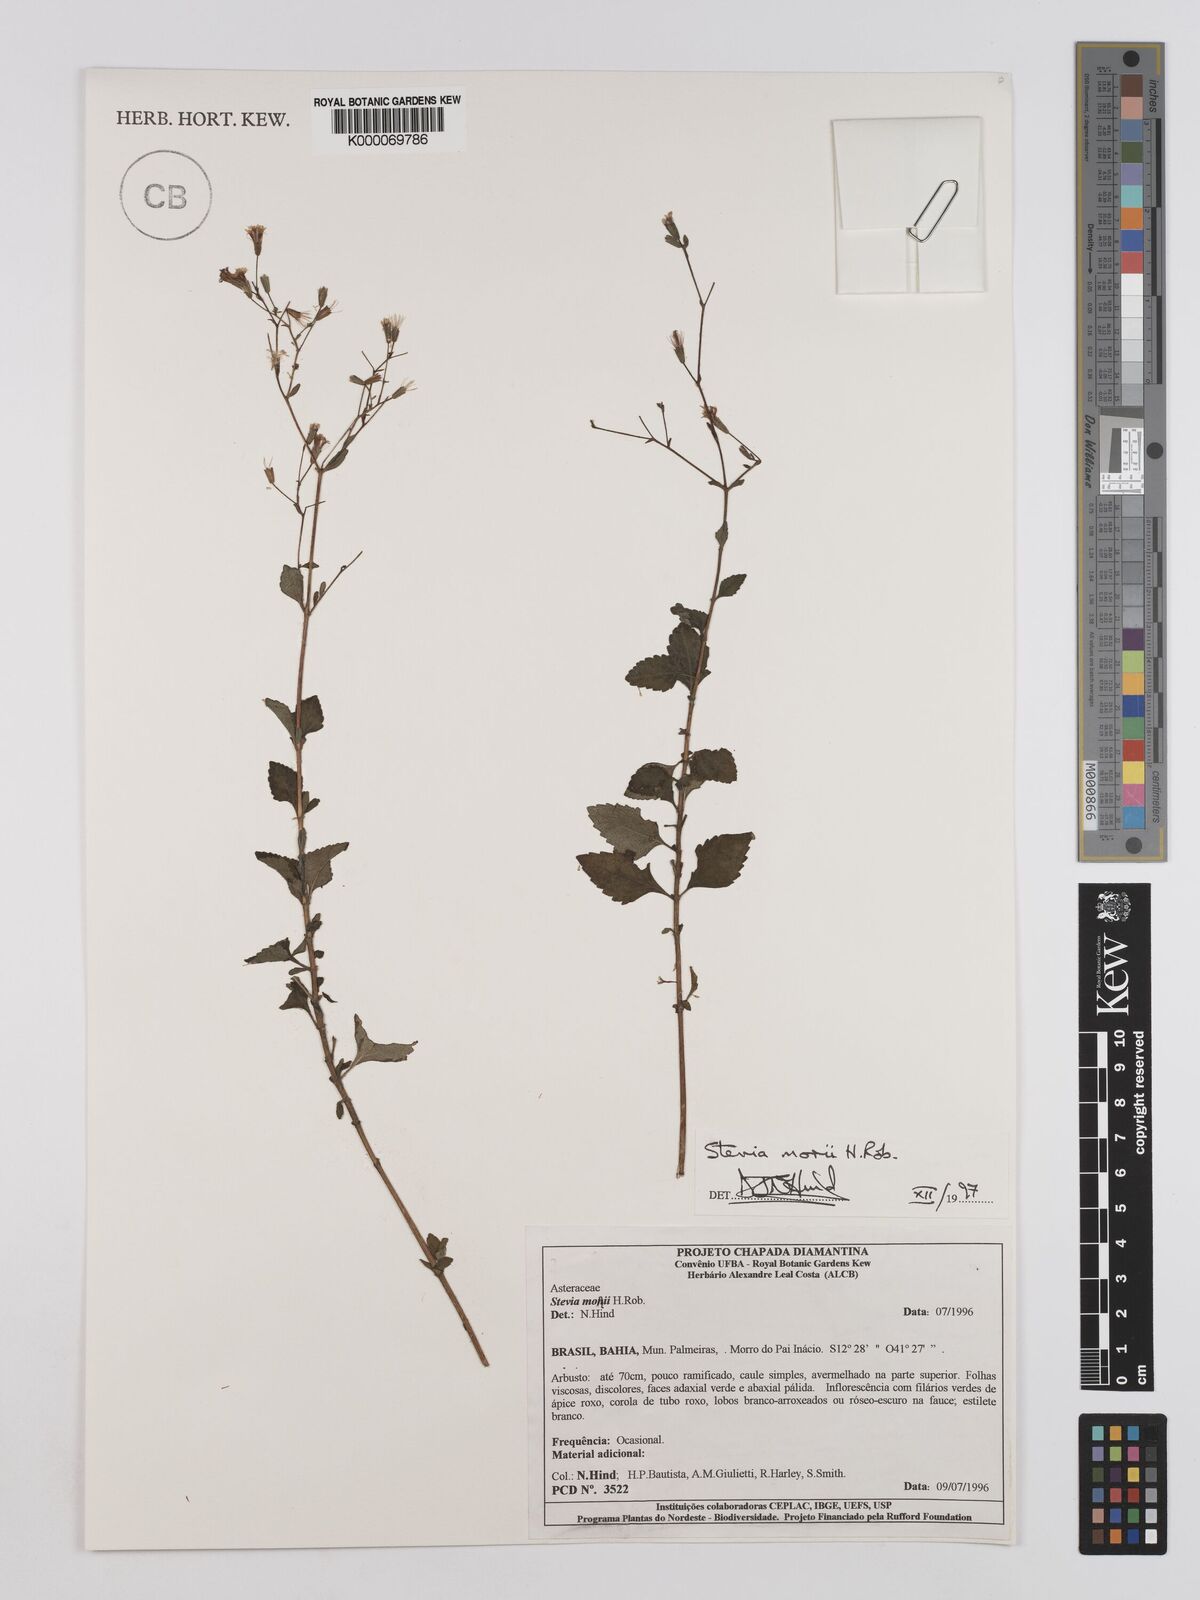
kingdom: Plantae
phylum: Tracheophyta
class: Magnoliopsida
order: Asterales
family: Asteraceae
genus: Stevia
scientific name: Stevia morii
